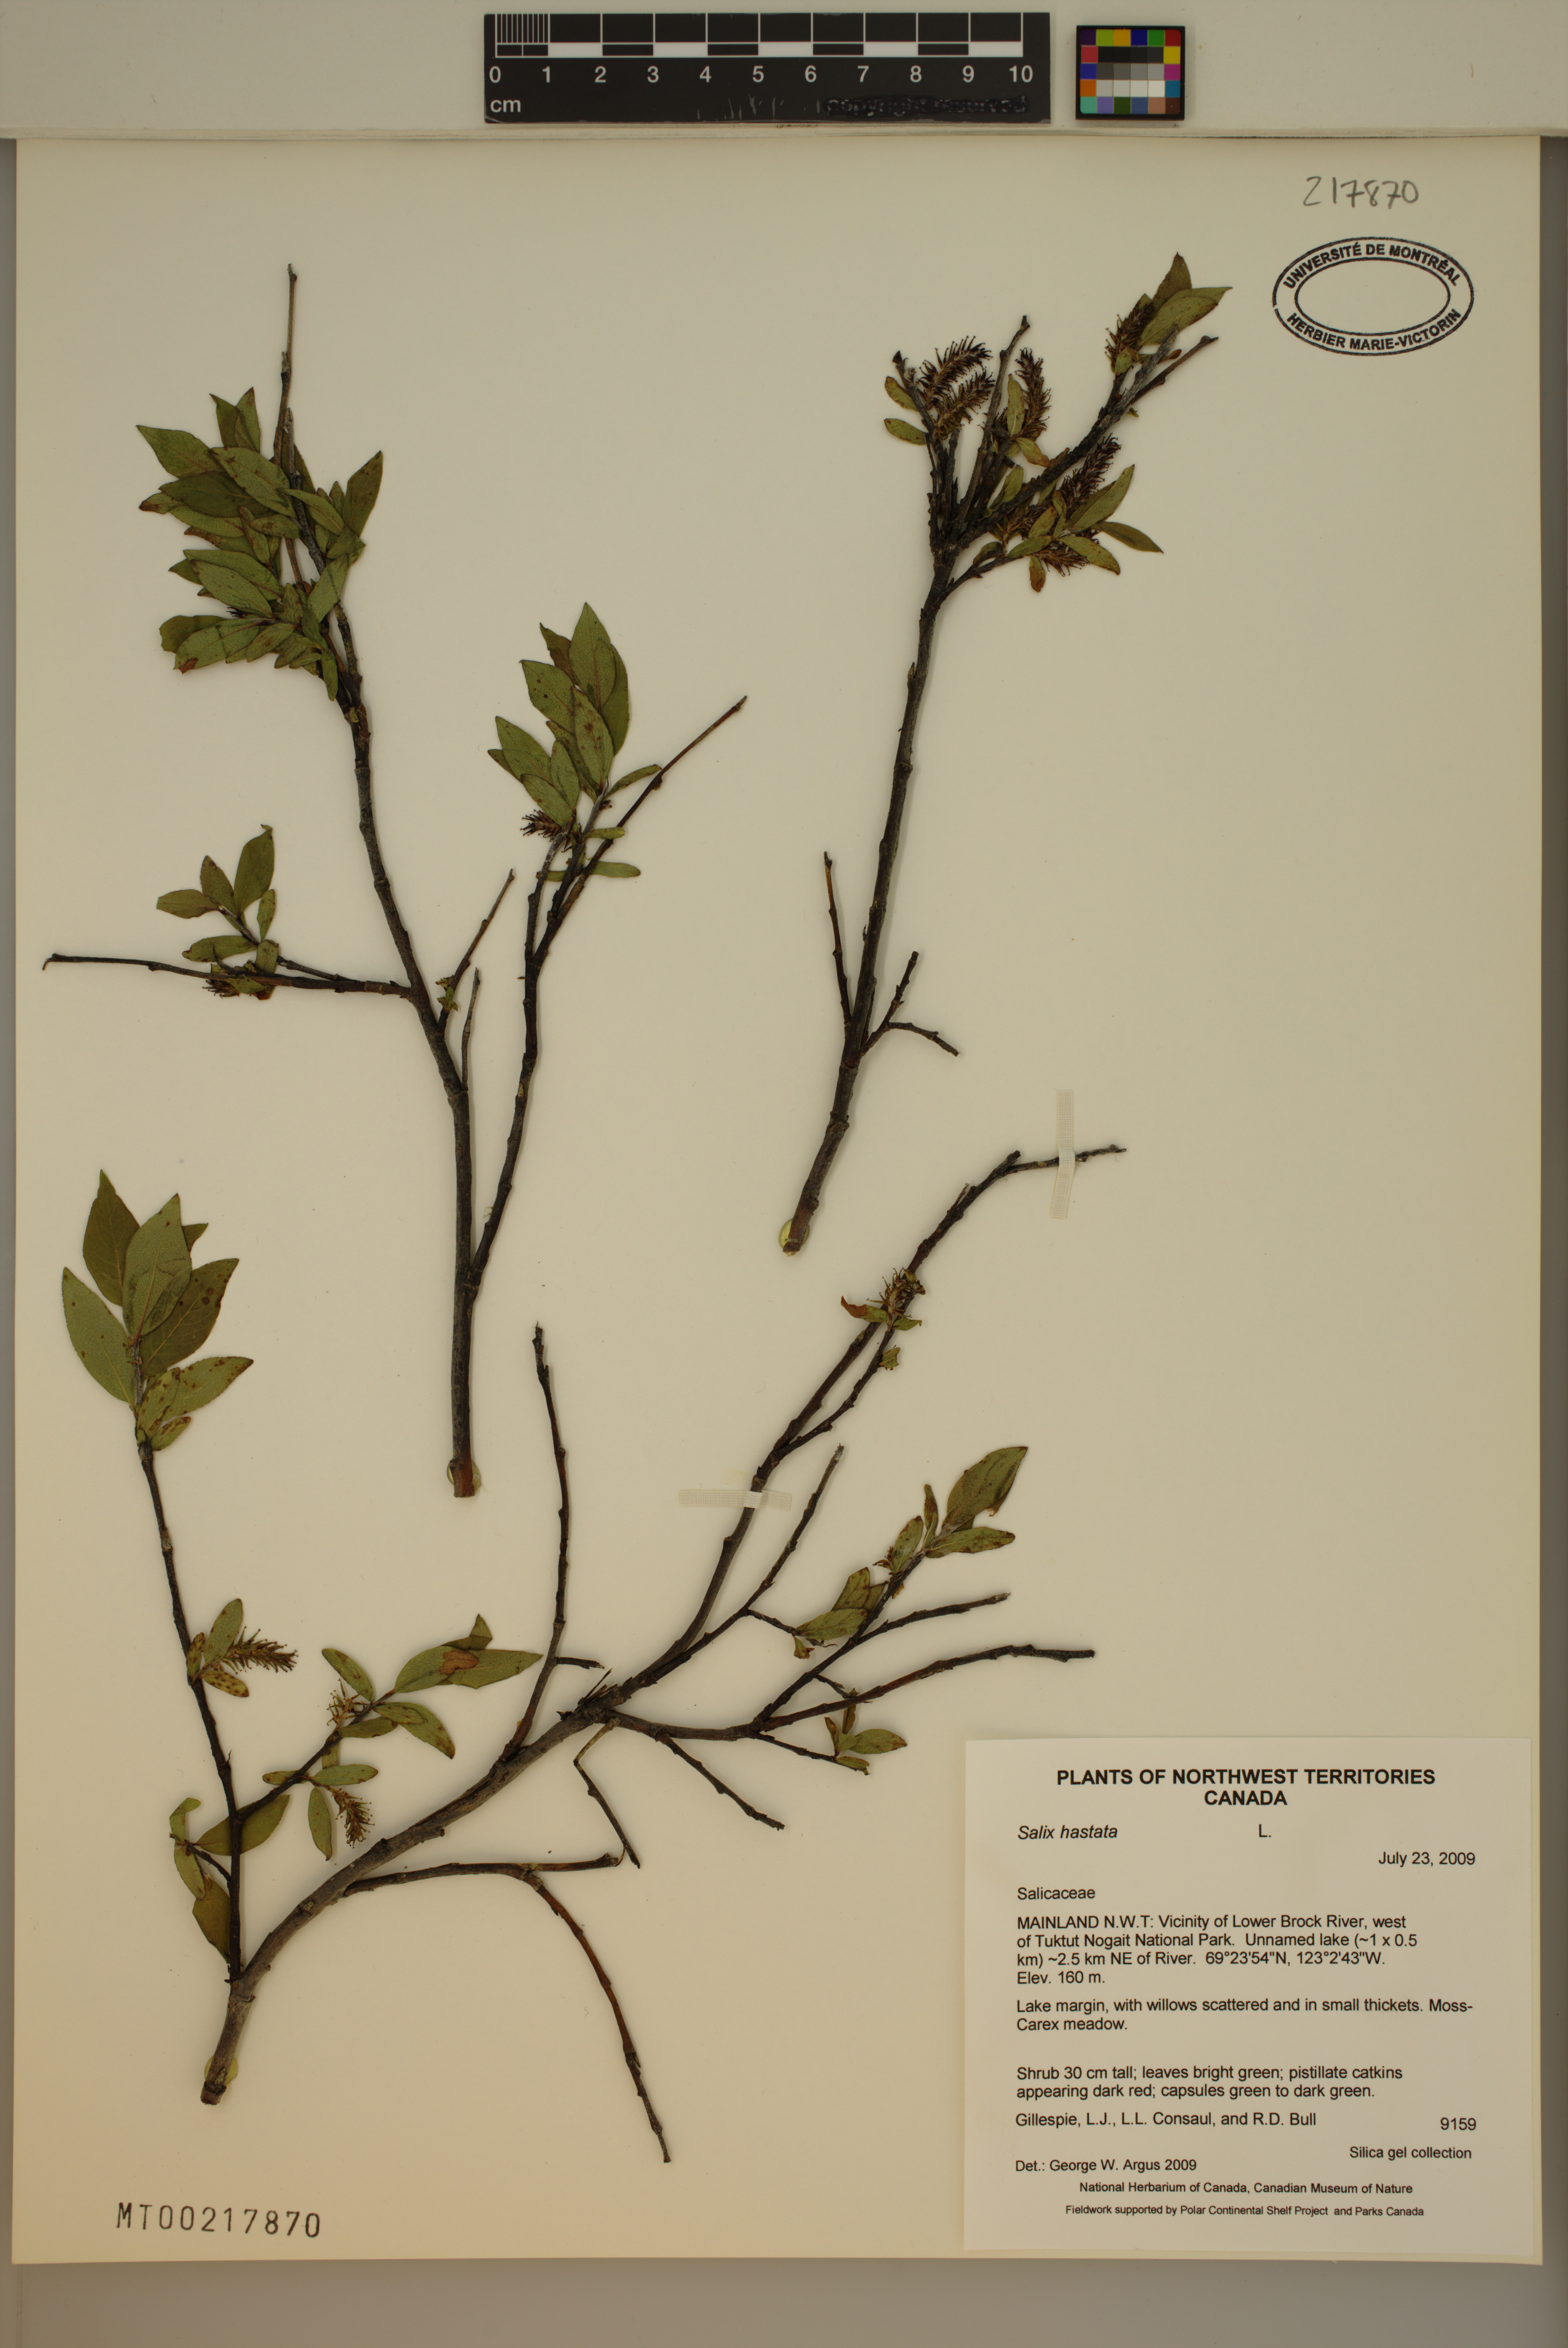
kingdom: Plantae
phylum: Tracheophyta
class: Magnoliopsida
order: Malpighiales
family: Salicaceae
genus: Salix
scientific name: Salix hastata
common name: Halberd willow
